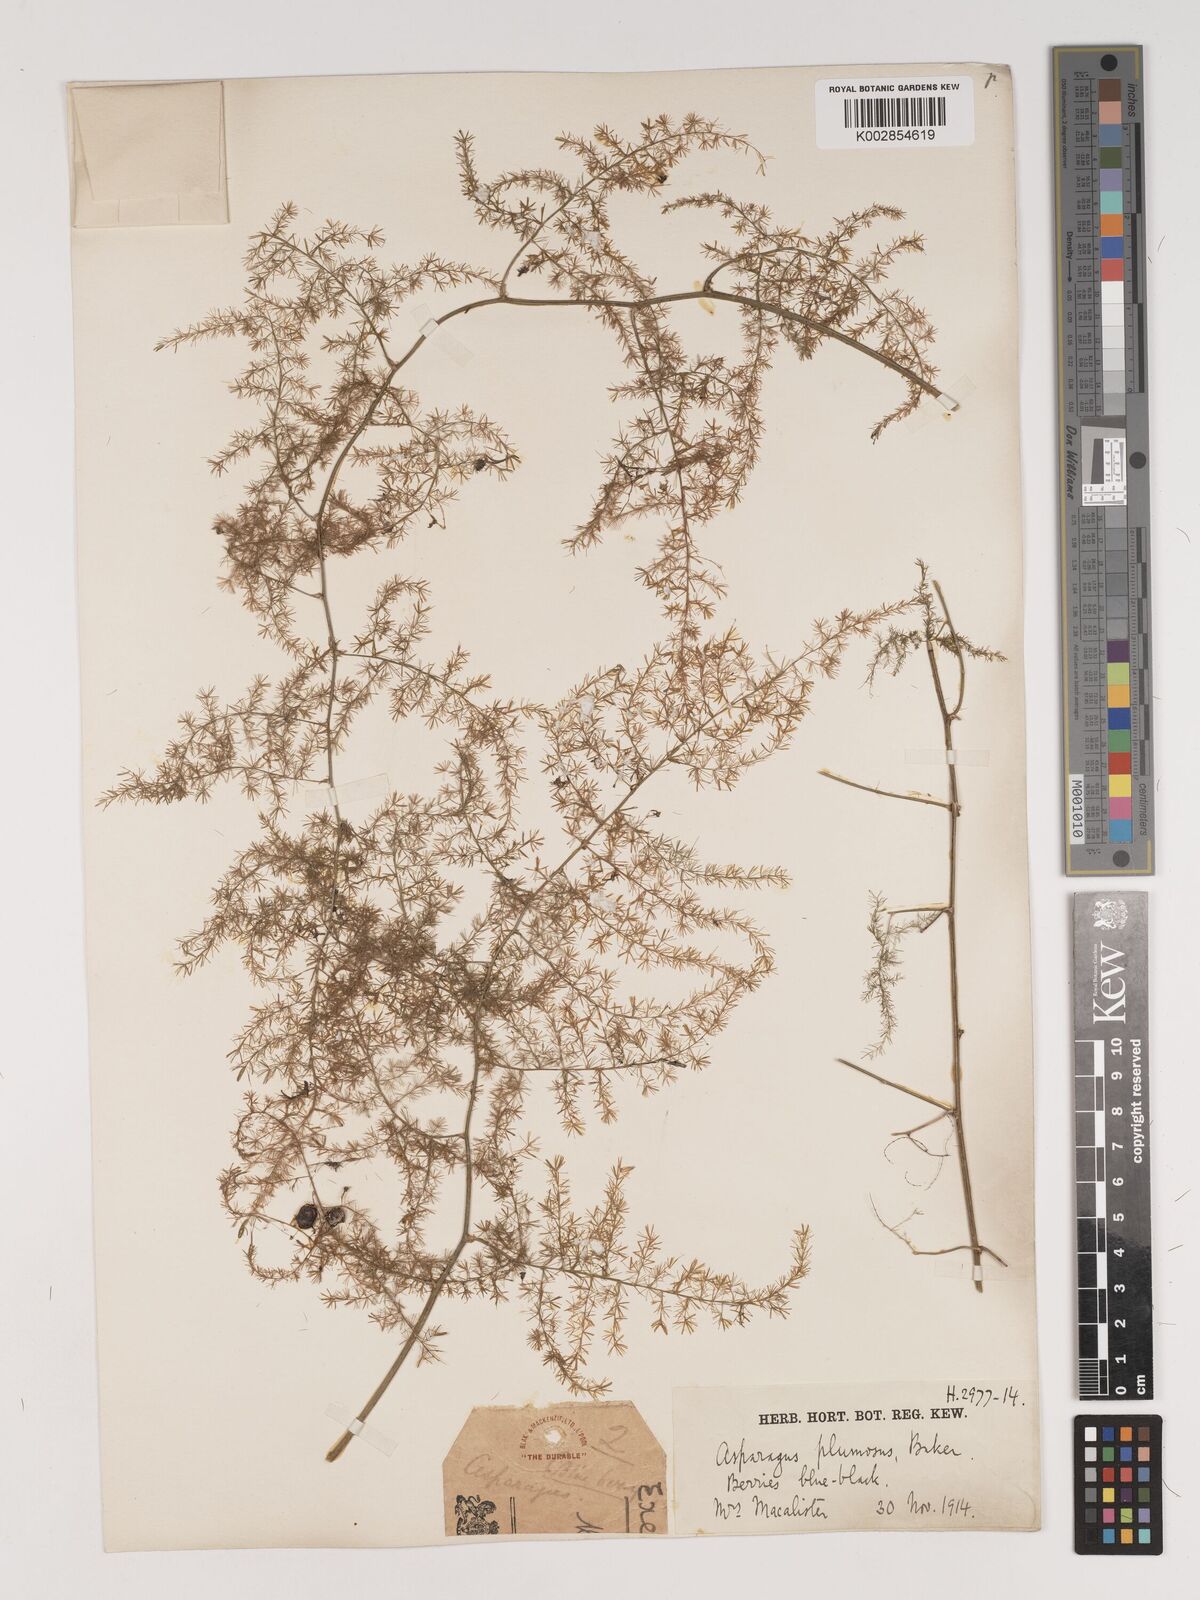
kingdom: Plantae
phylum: Tracheophyta
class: Liliopsida
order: Asparagales
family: Asparagaceae
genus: Asparagus
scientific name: Asparagus setaceus
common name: Common asparagus fern
